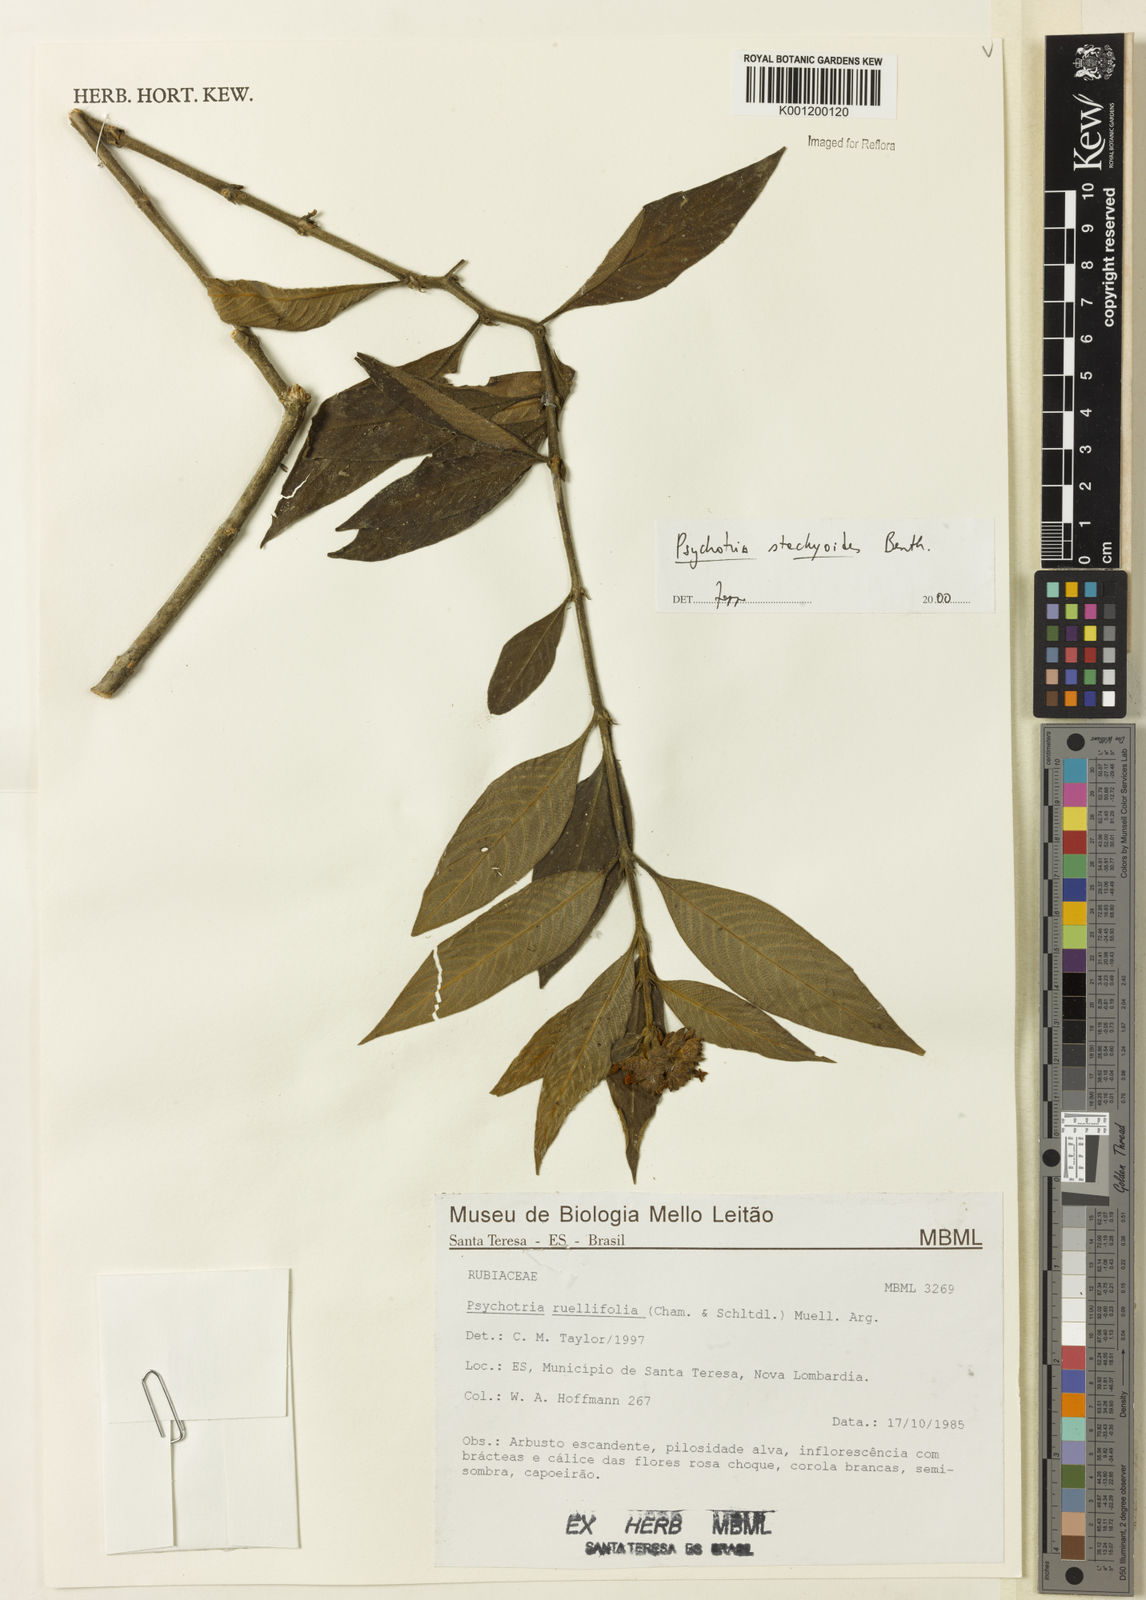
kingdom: Plantae
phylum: Tracheophyta
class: Magnoliopsida
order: Gentianales
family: Rubiaceae
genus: Psychotria
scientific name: Psychotria stachyoides
